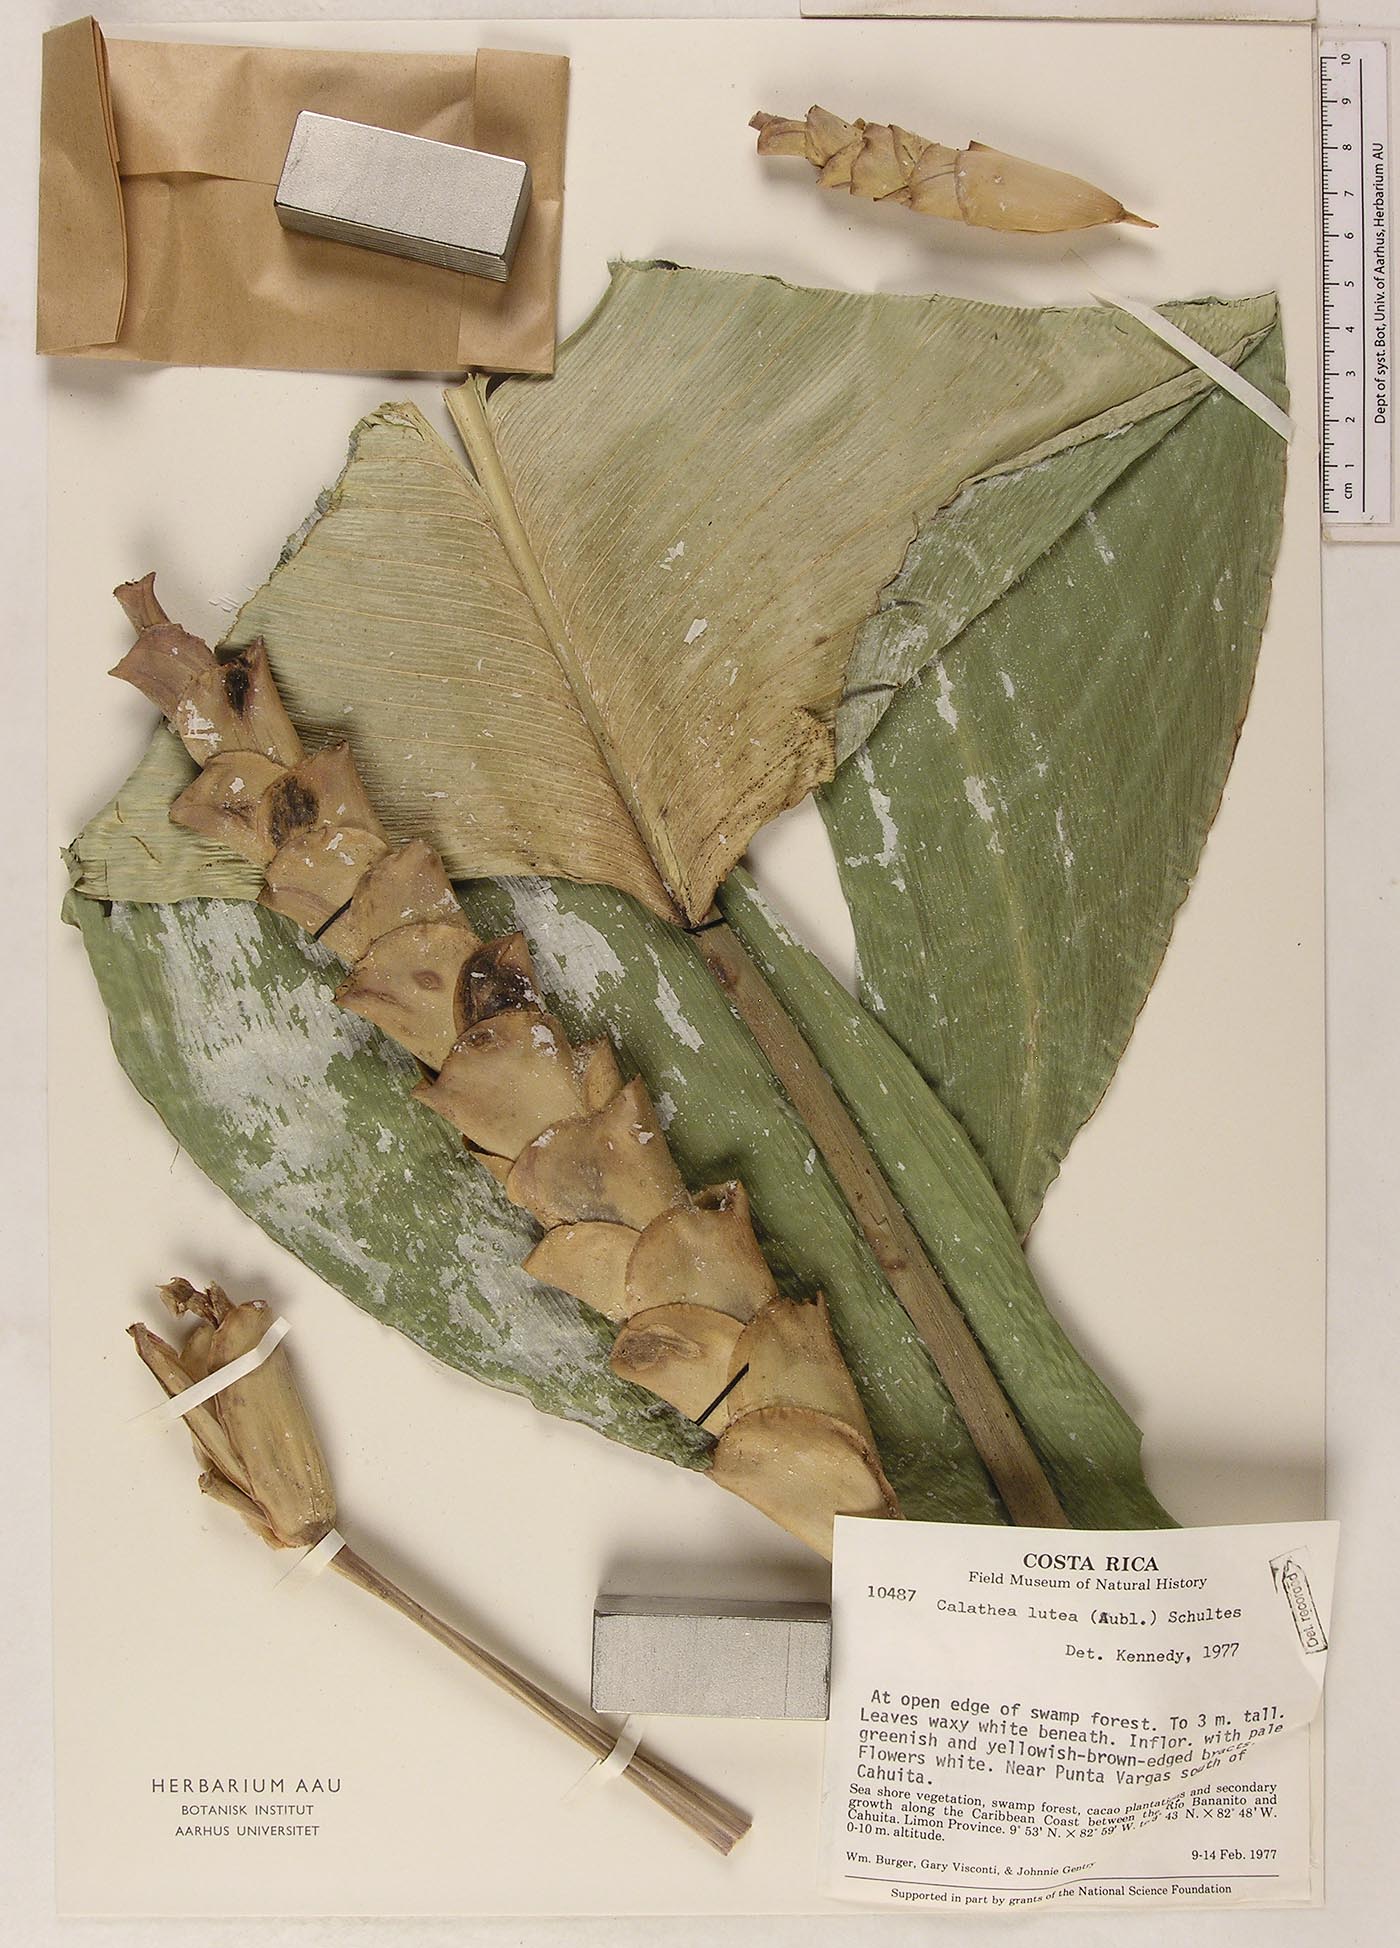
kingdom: Plantae
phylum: Tracheophyta
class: Liliopsida
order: Zingiberales
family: Marantaceae
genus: Calathea
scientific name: Calathea lutea
